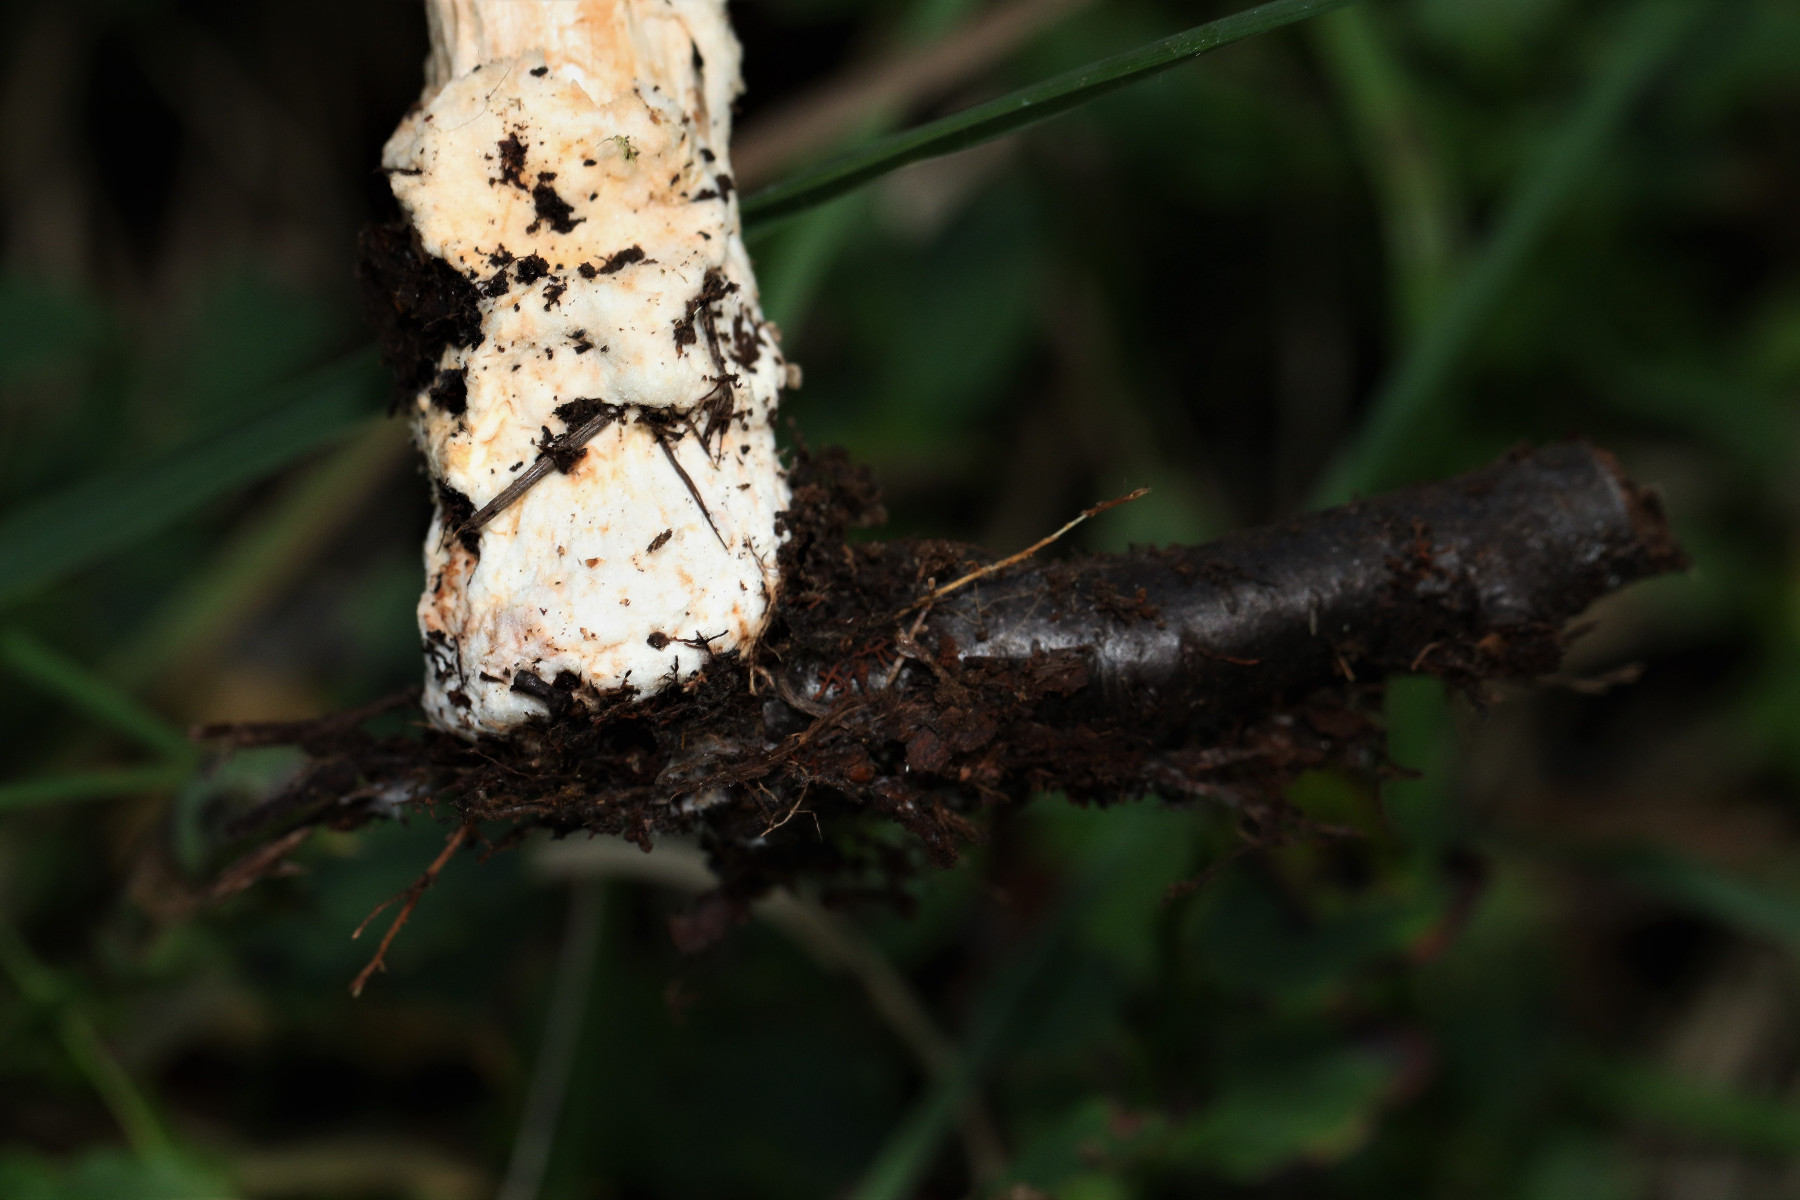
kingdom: Fungi
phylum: Basidiomycota
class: Agaricomycetes
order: Agaricales
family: Amanitaceae
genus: Amanita
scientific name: Amanita fulva
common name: brun kam-fluesvamp
